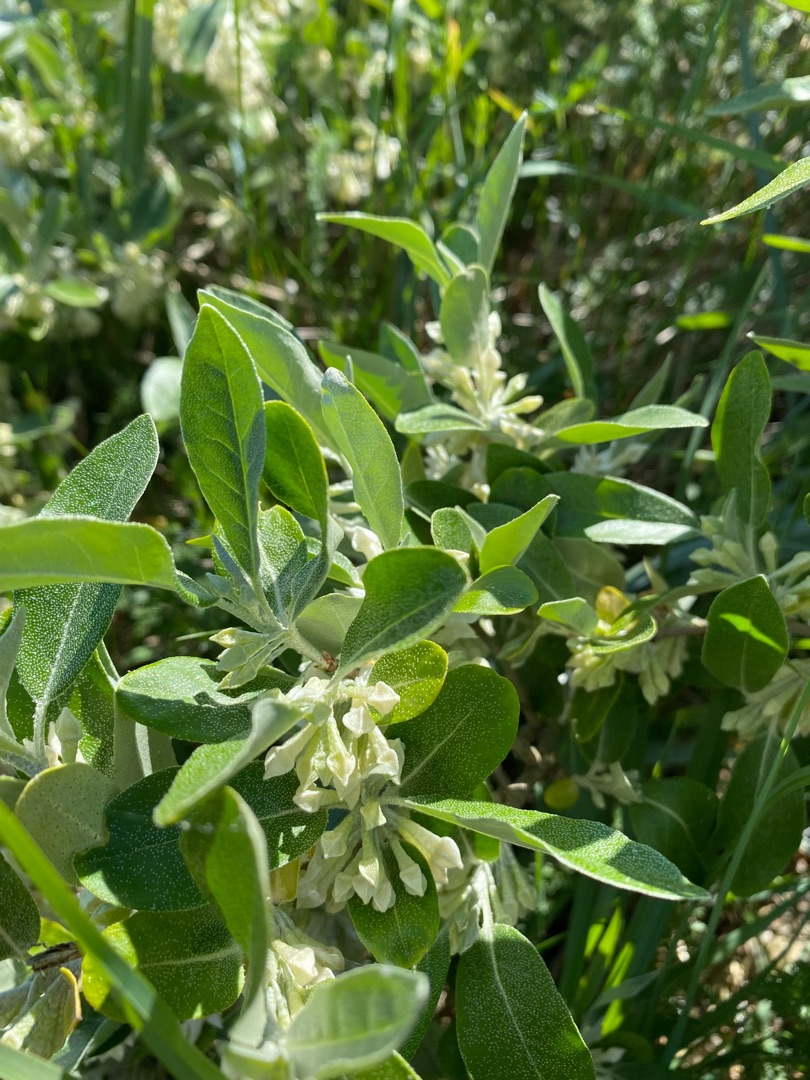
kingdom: Plantae
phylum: Tracheophyta
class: Magnoliopsida
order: Rosales
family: Elaeagnaceae
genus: Elaeagnus
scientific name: Elaeagnus umbellata
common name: Skærm-sølvblad
